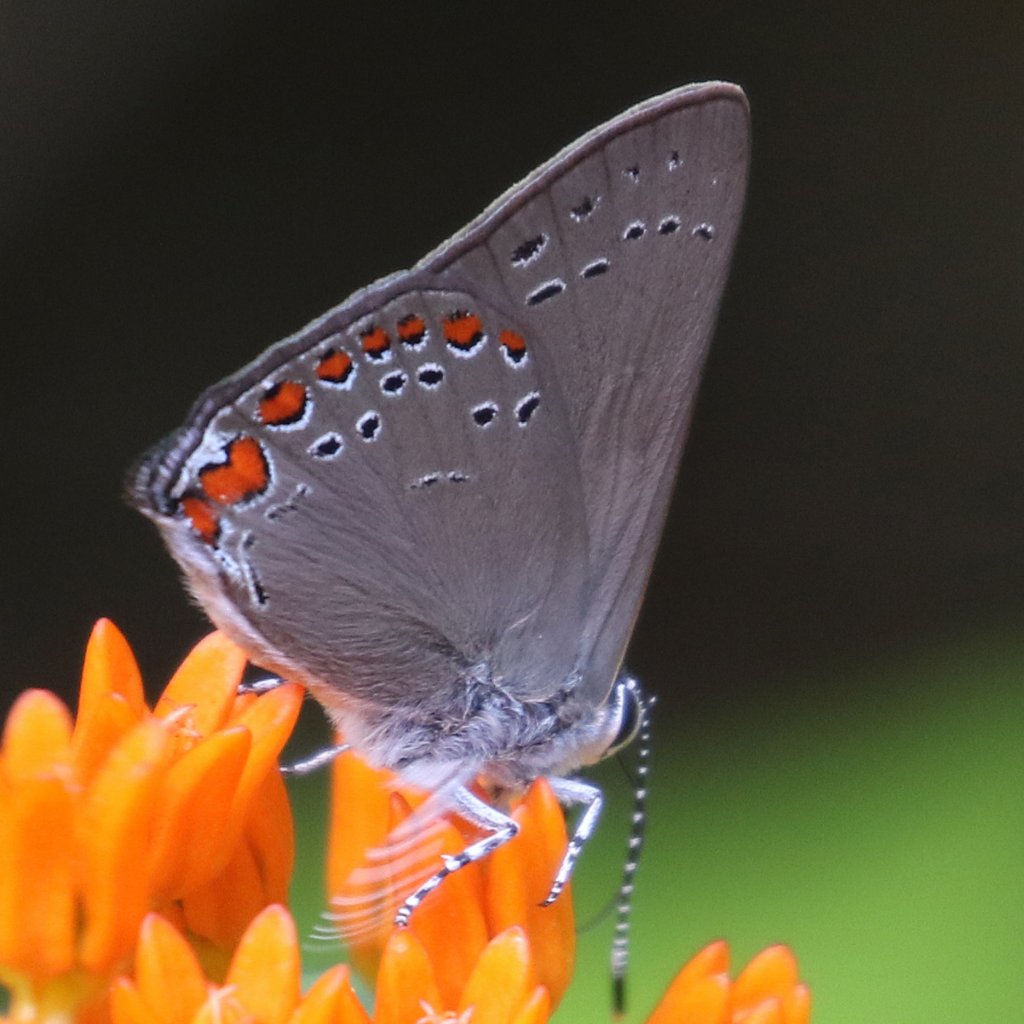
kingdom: Animalia
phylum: Arthropoda
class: Insecta
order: Lepidoptera
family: Lycaenidae
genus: Harkenclenus
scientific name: Harkenclenus titus
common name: Coral Hairstreak
